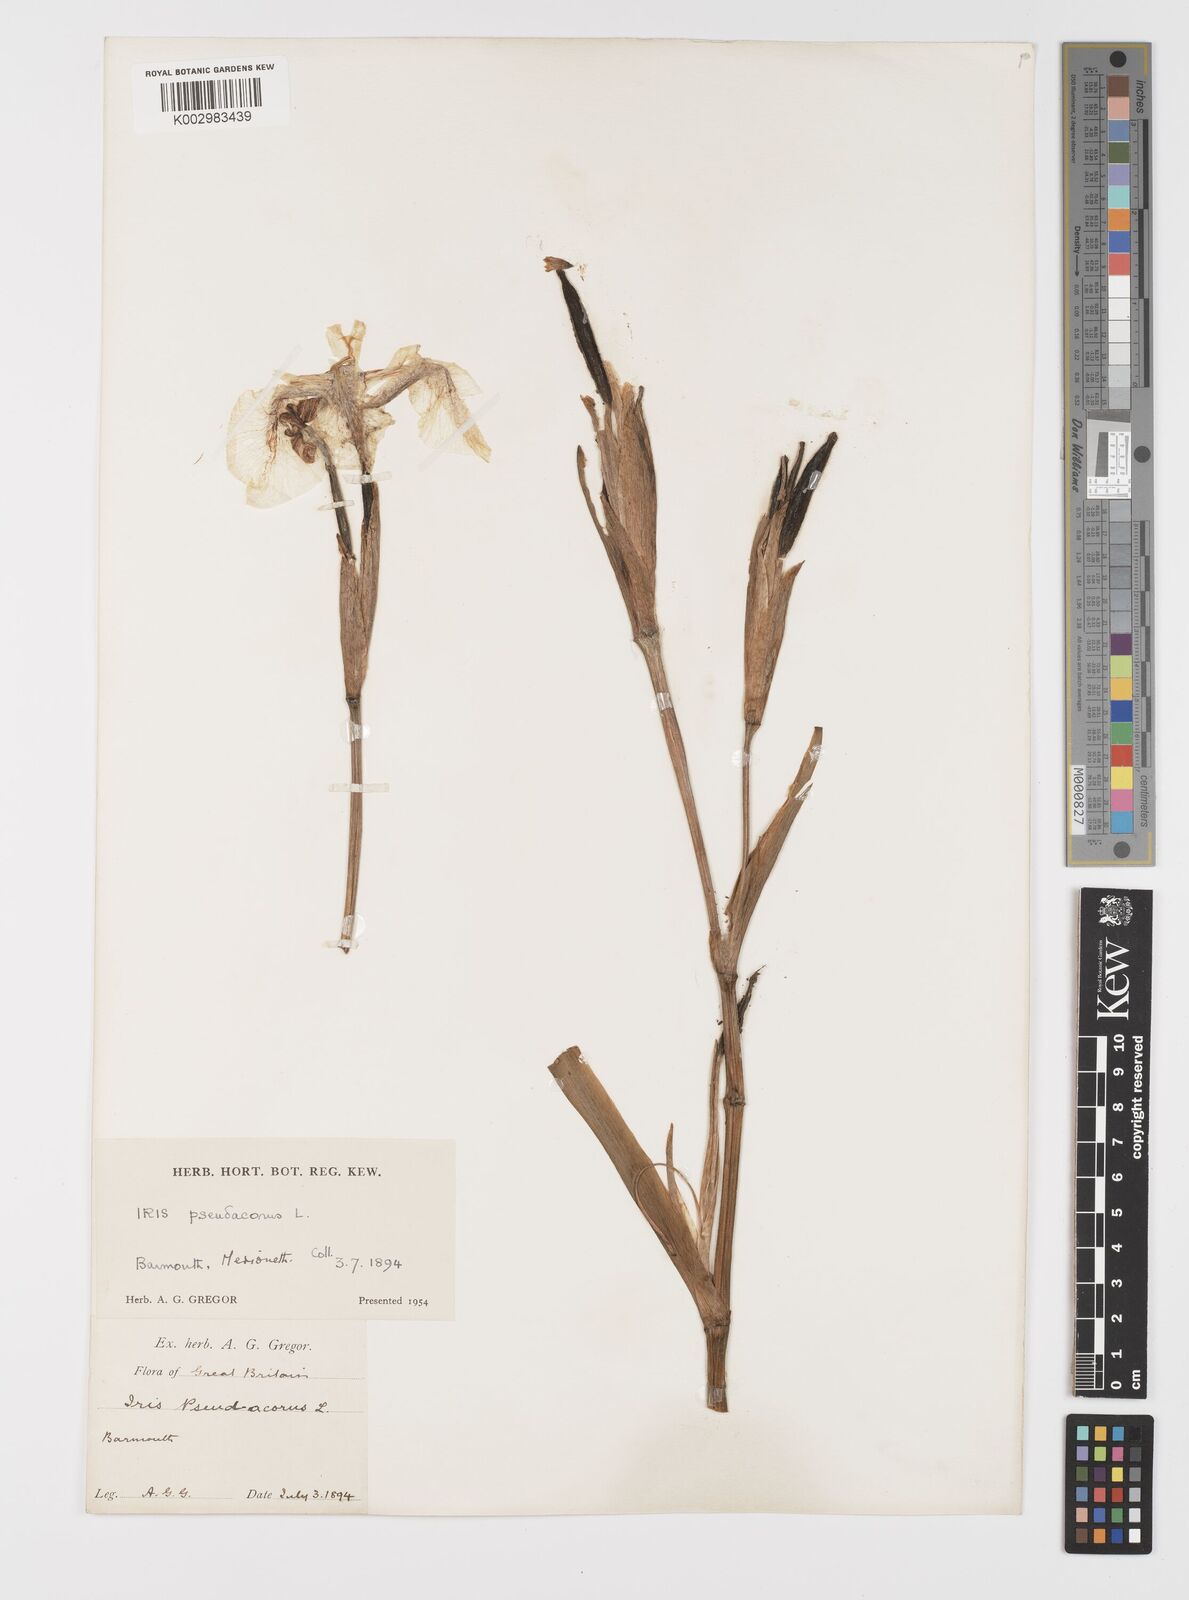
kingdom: Plantae
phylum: Tracheophyta
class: Liliopsida
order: Asparagales
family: Iridaceae
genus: Iris
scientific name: Iris pseudacorus
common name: Yellow flag
